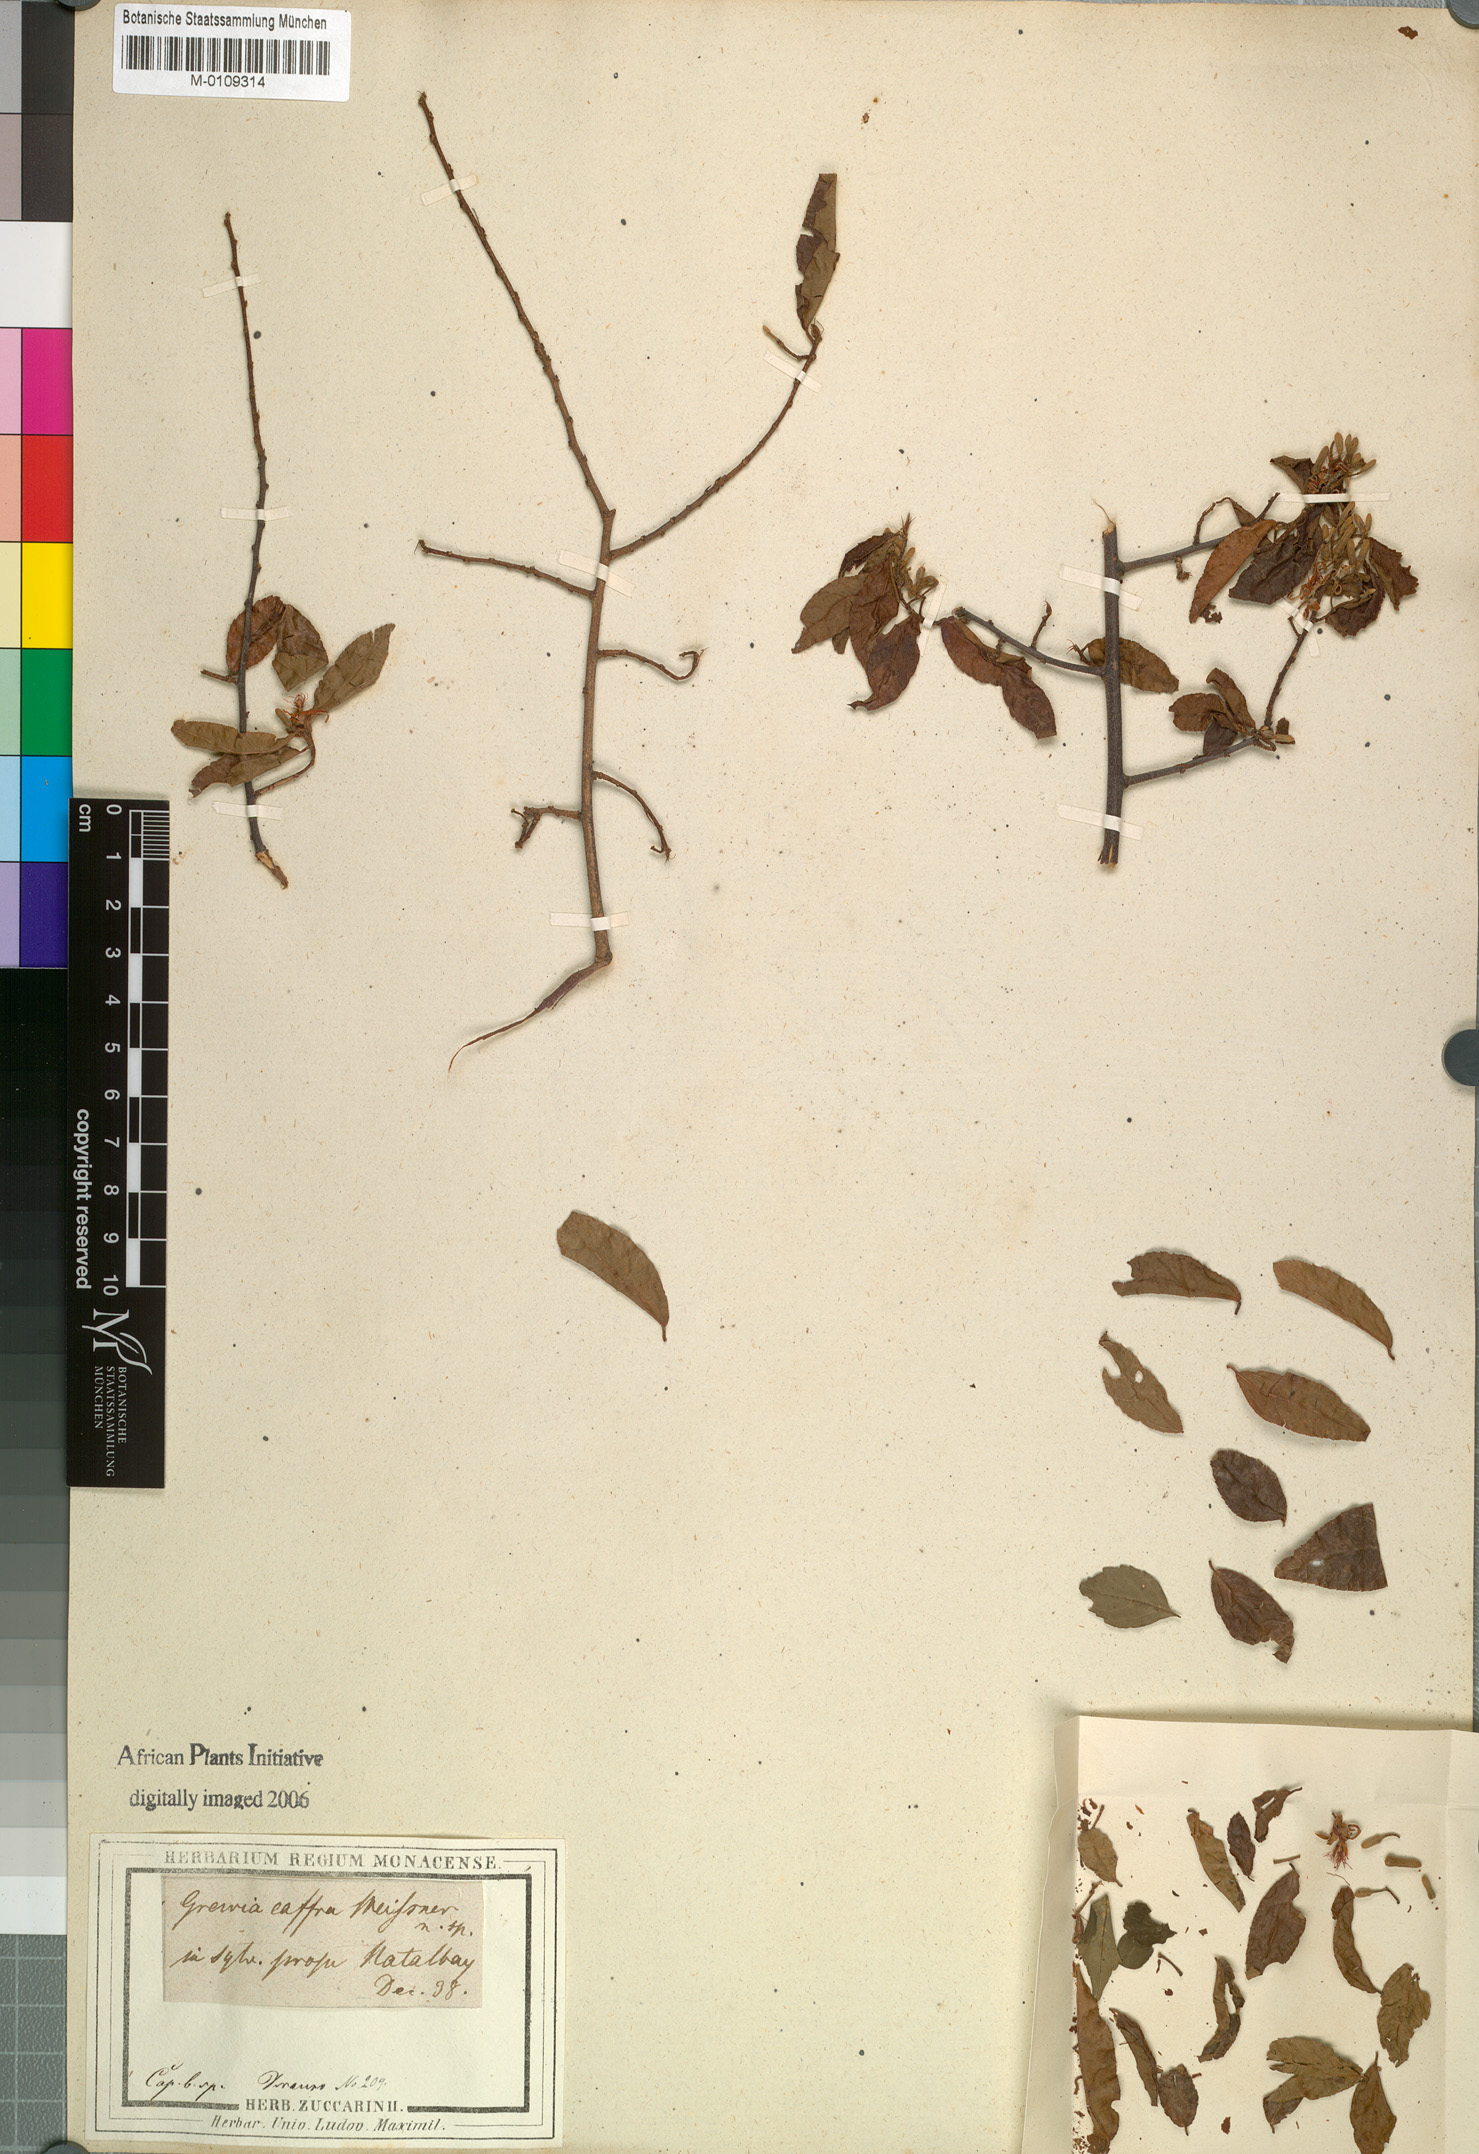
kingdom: Plantae
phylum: Tracheophyta
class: Magnoliopsida
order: Malvales
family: Malvaceae
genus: Grewia
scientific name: Grewia caffra
